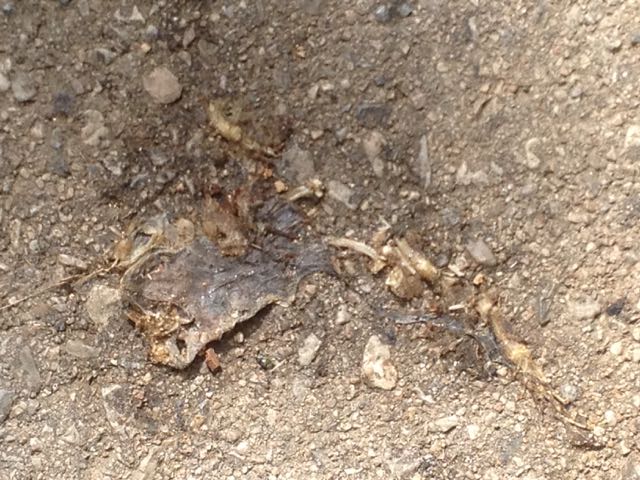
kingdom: Animalia
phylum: Chordata
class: Amphibia
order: Anura
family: Bufonidae
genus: Bufo
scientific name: Bufo bufo
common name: Common toad
